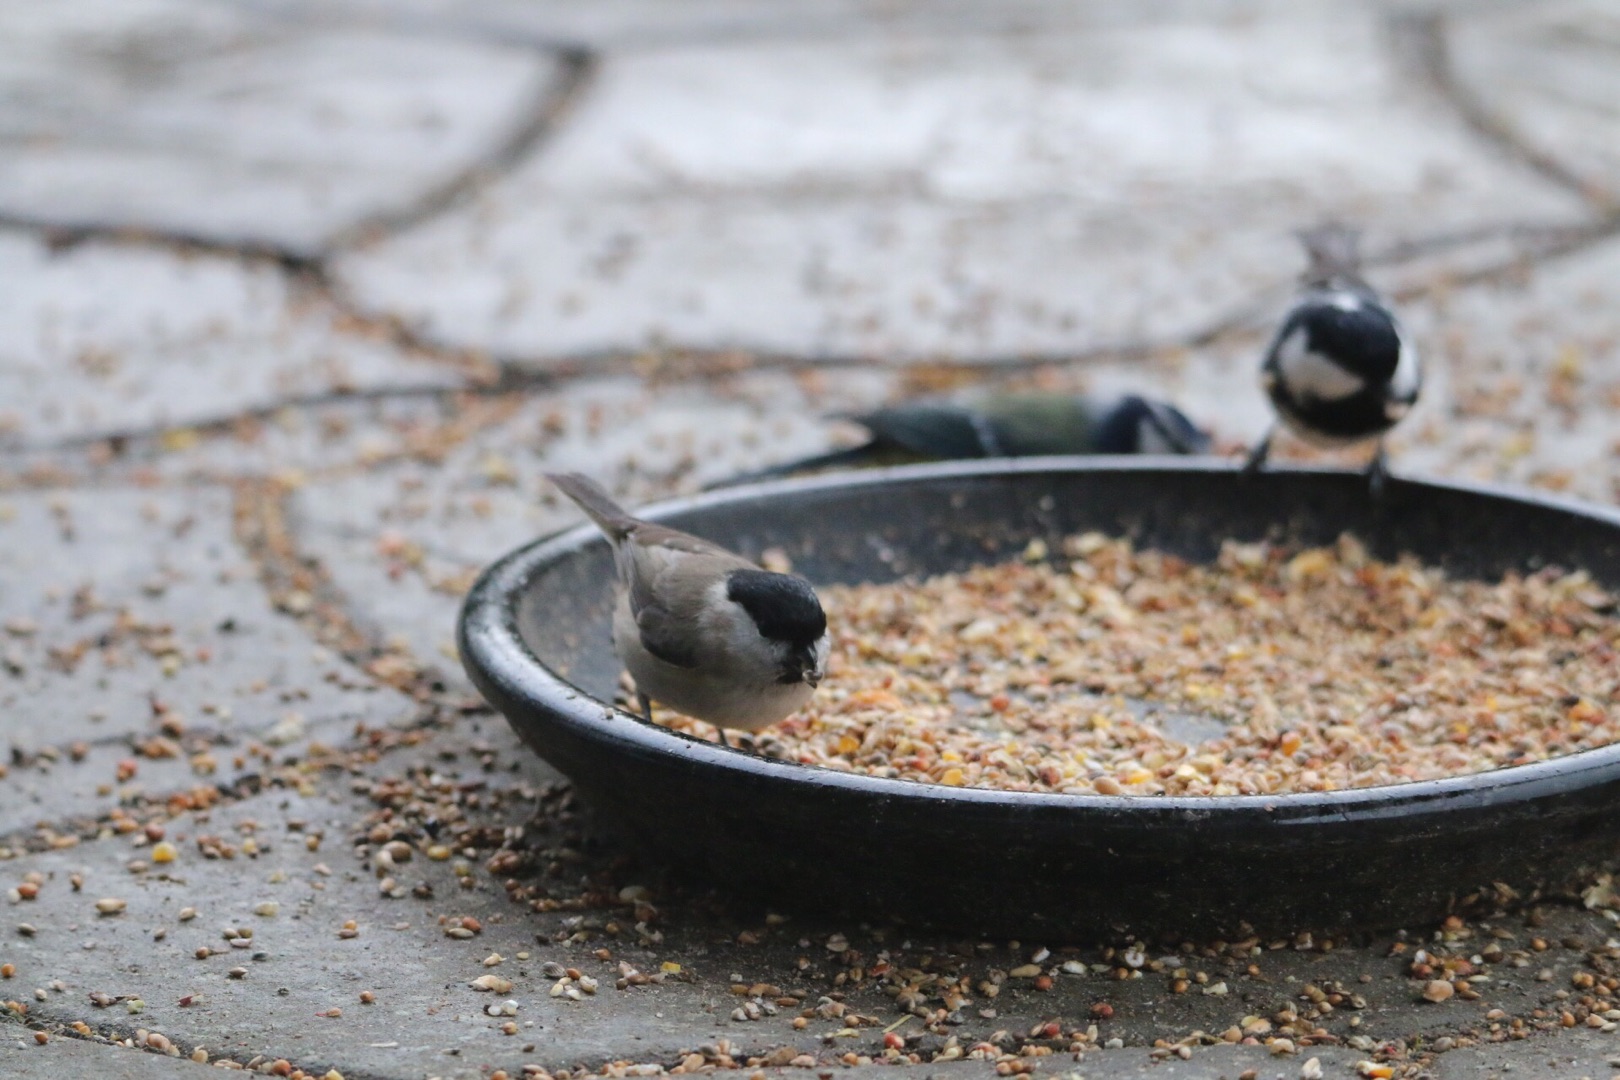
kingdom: Animalia
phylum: Chordata
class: Aves
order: Passeriformes
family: Paridae
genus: Poecile
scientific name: Poecile palustris
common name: Sumpmejse
